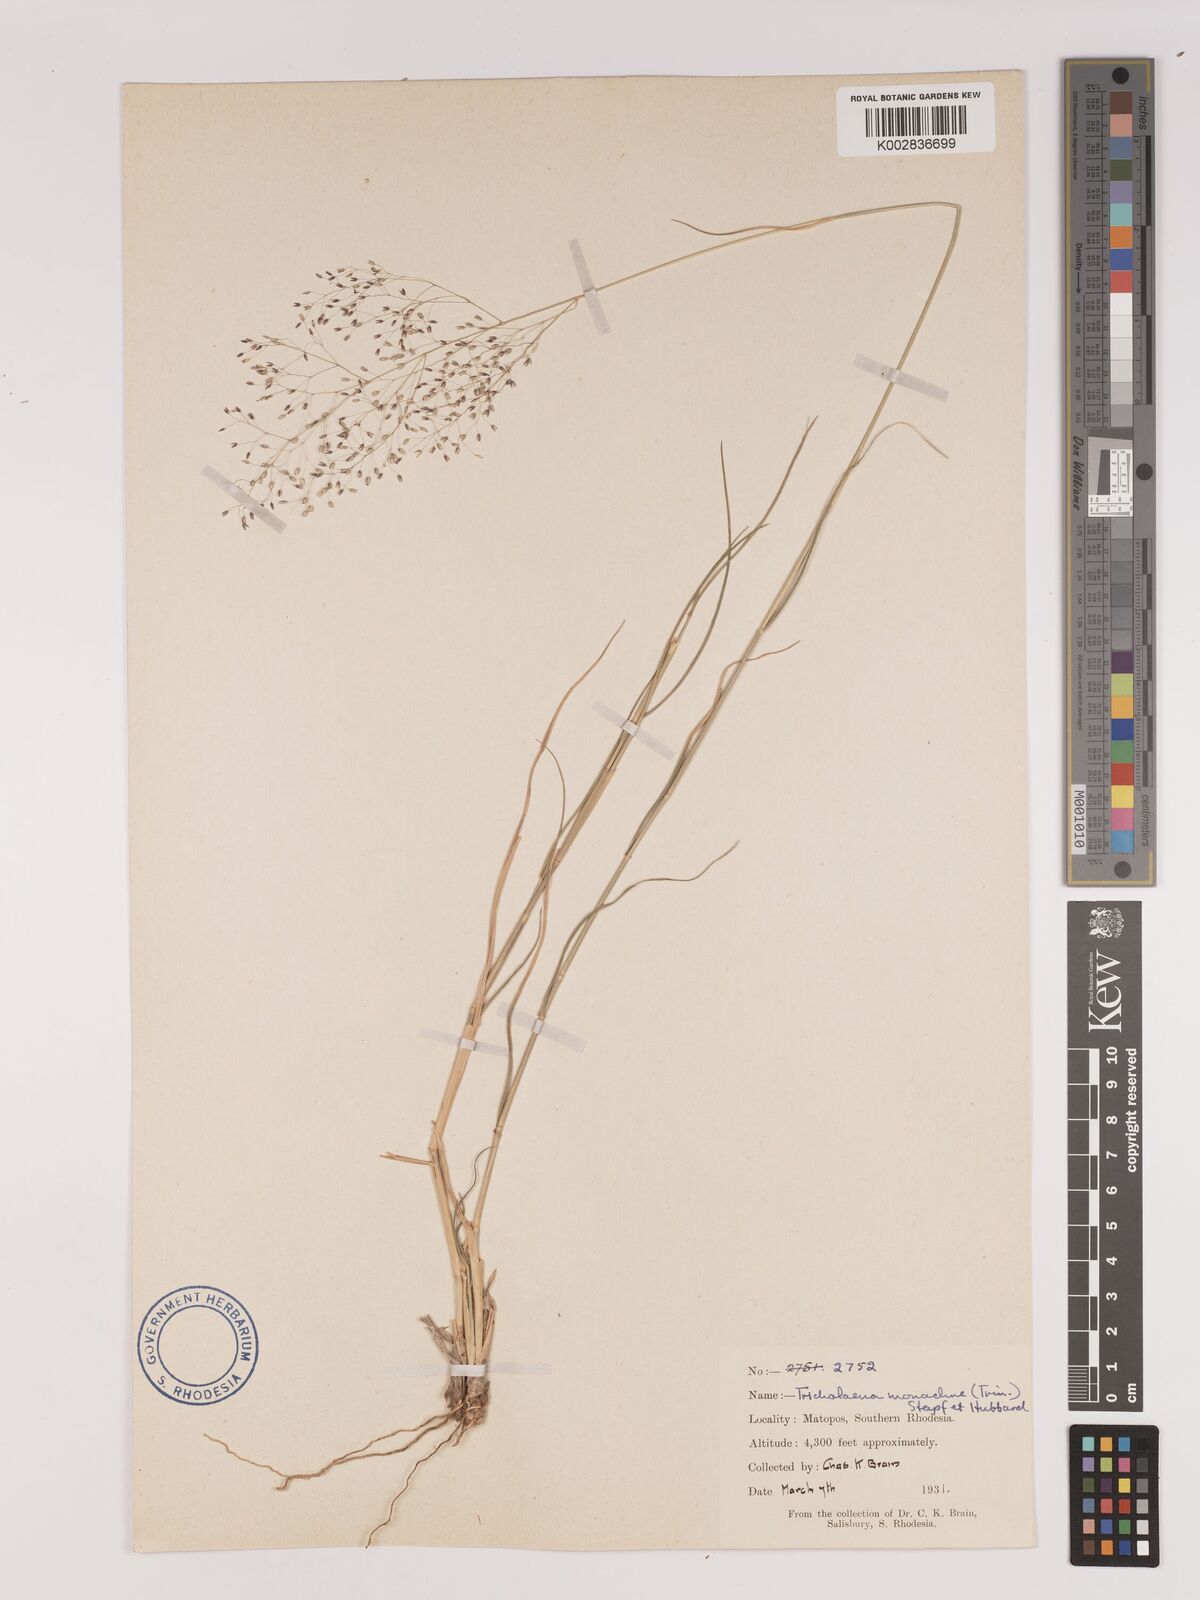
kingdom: Plantae
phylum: Tracheophyta
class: Liliopsida
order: Poales
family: Poaceae
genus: Tricholaena
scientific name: Tricholaena monachne
